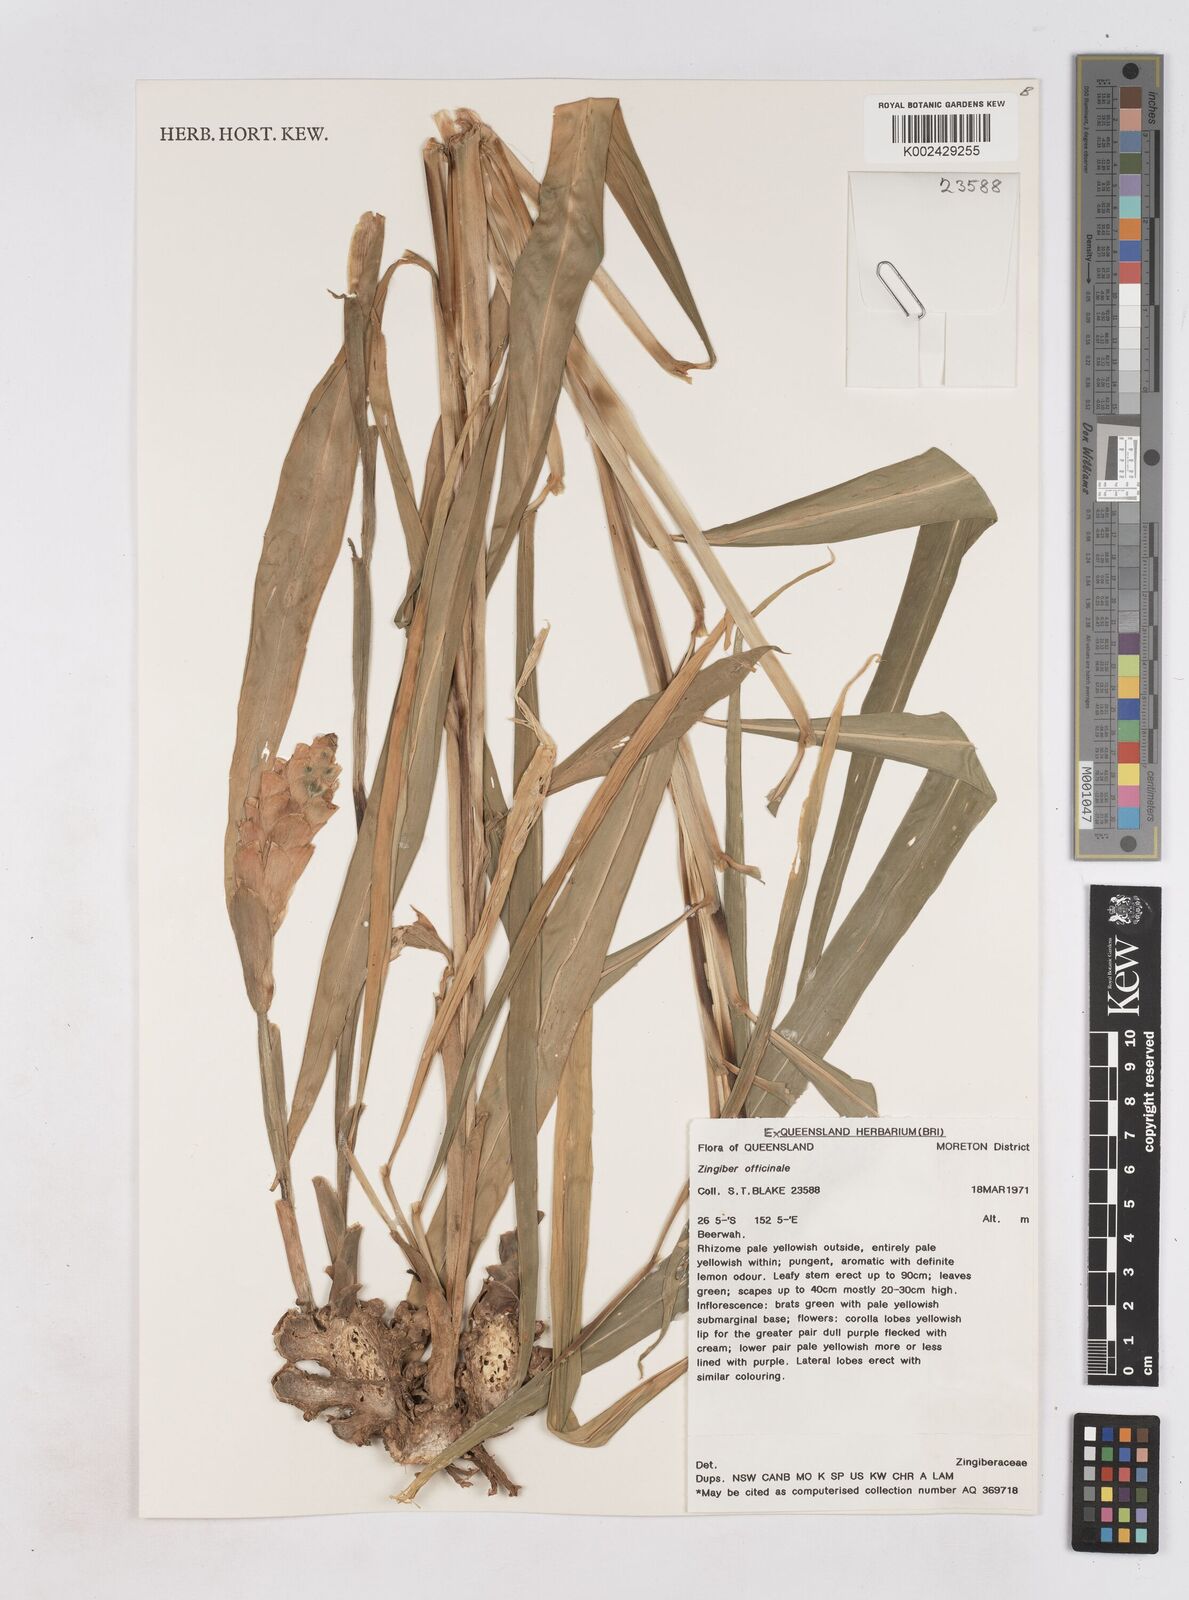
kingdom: Plantae
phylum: Tracheophyta
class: Liliopsida
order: Zingiberales
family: Zingiberaceae
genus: Zingiber
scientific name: Zingiber officinale
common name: Ginger
